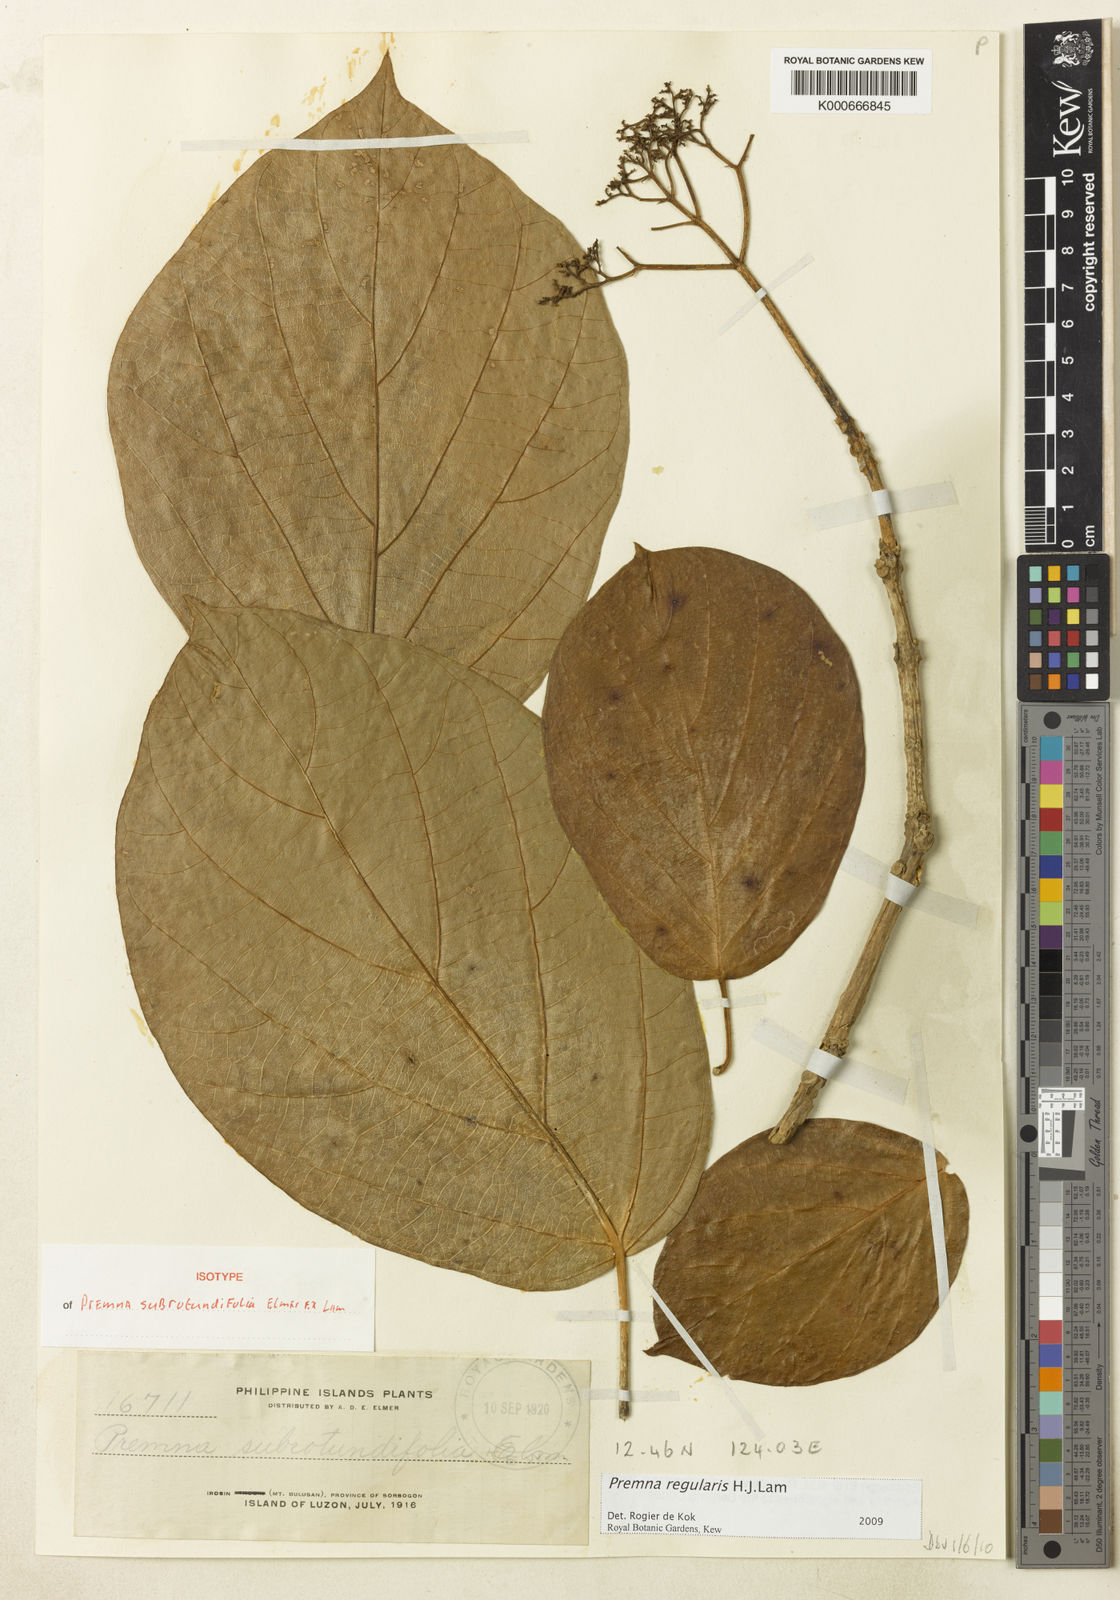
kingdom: Plantae
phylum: Tracheophyta
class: Magnoliopsida
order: Lamiales
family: Lamiaceae
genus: Premna
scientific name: Premna regularis
